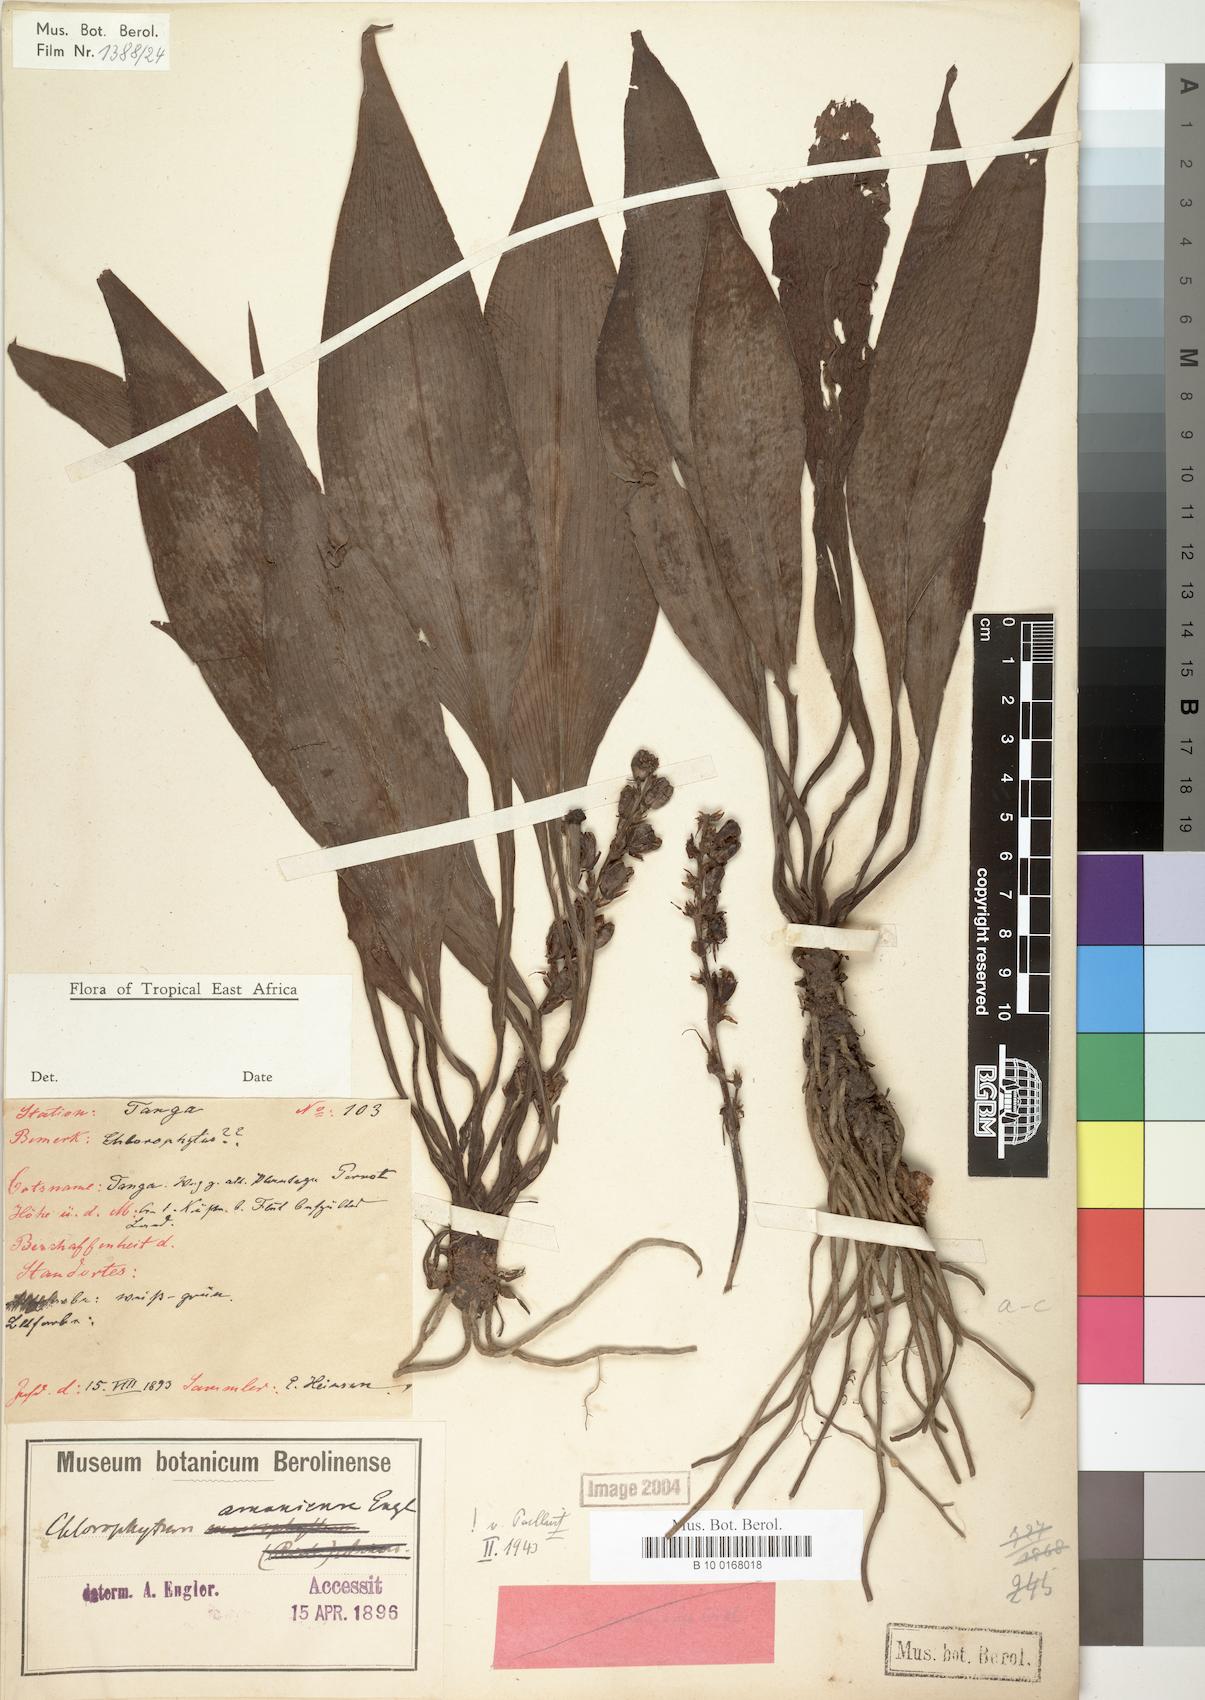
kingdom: Plantae
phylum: Tracheophyta
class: Liliopsida
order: Asparagales
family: Asparagaceae
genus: Chlorophytum
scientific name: Chlorophytum filipendulum
